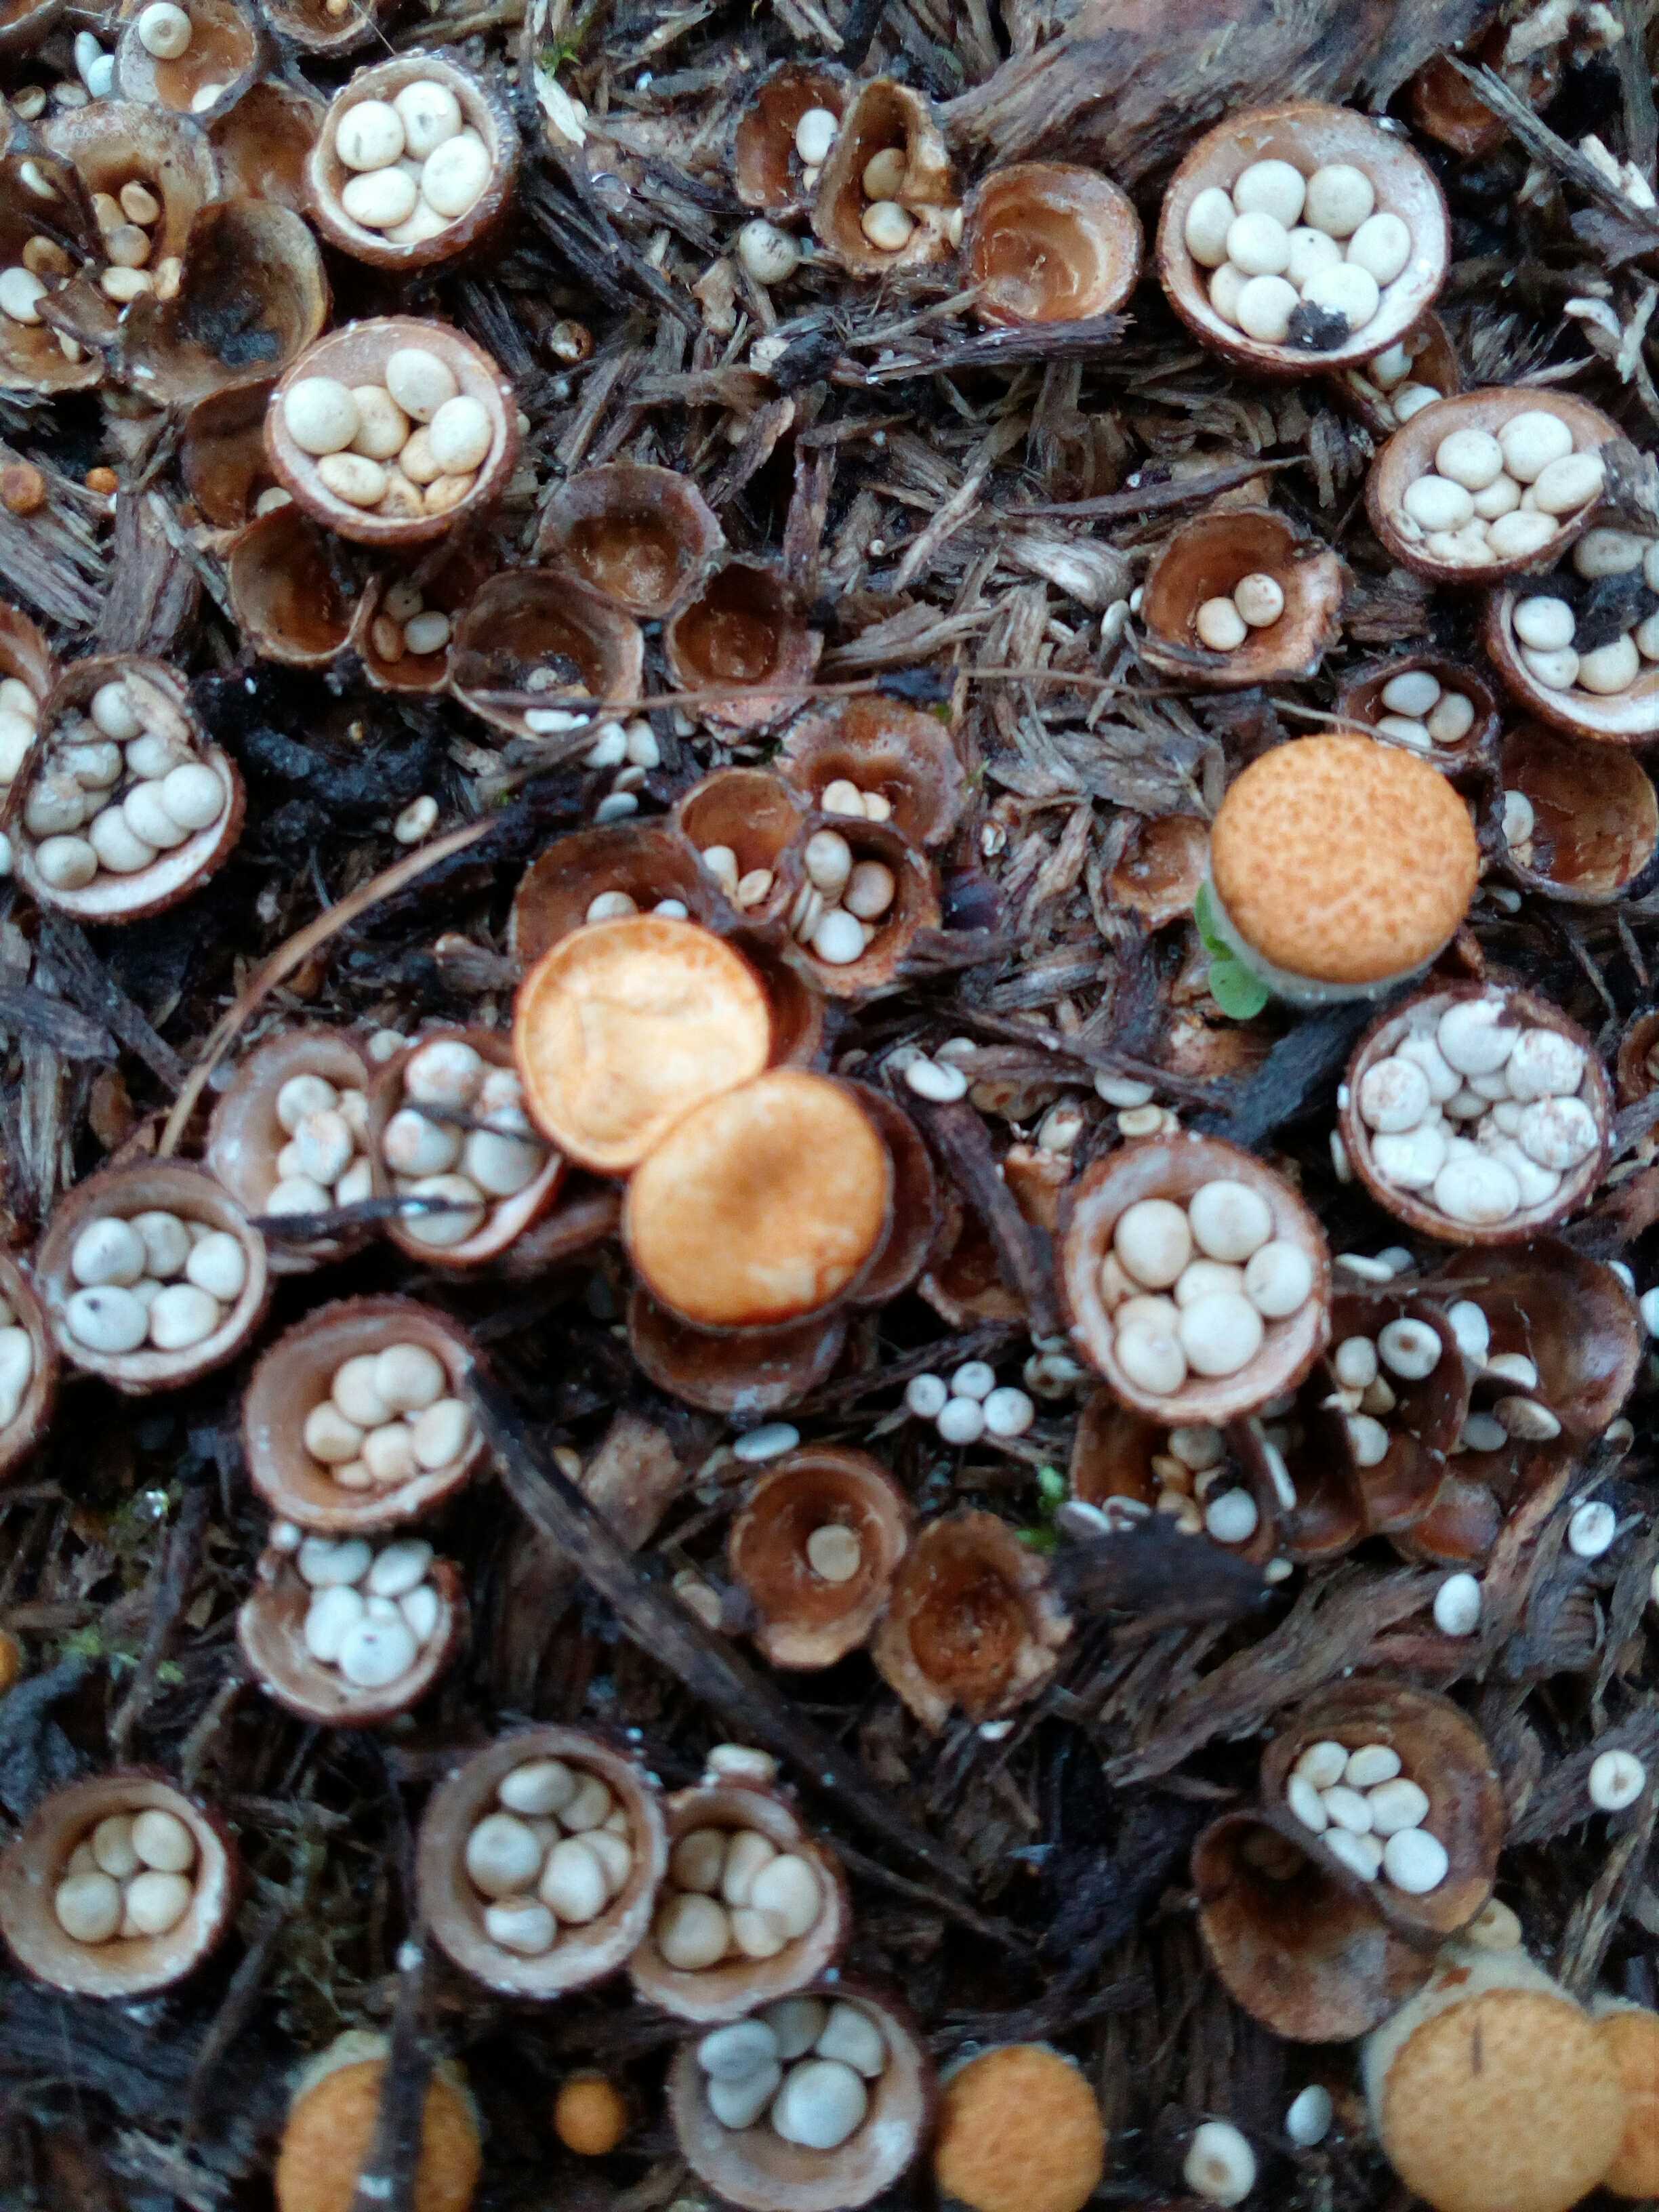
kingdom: Fungi
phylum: Basidiomycota
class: Agaricomycetes
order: Agaricales
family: Nidulariaceae
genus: Crucibulum
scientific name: Crucibulum crucibuliforme
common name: krukkesvamp
